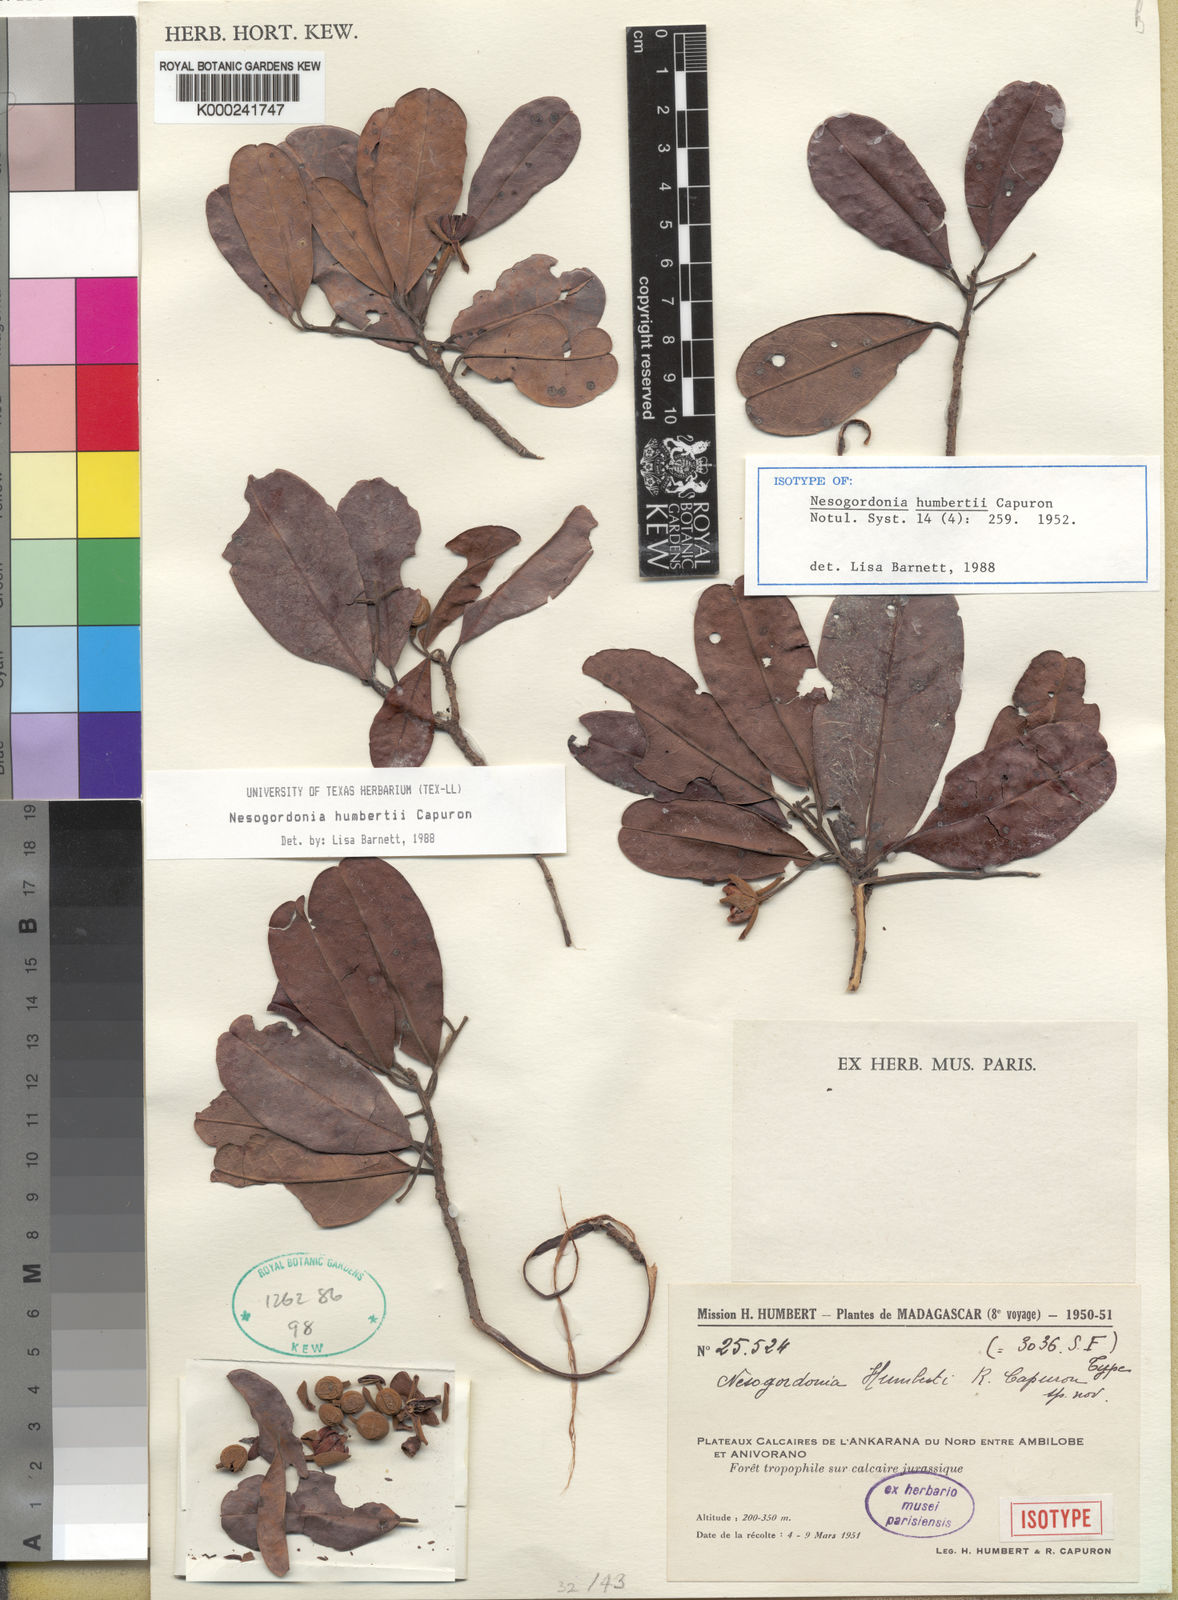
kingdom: Plantae
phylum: Tracheophyta
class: Magnoliopsida
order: Malvales
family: Malvaceae
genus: Nesogordonia
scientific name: Nesogordonia humbertii
